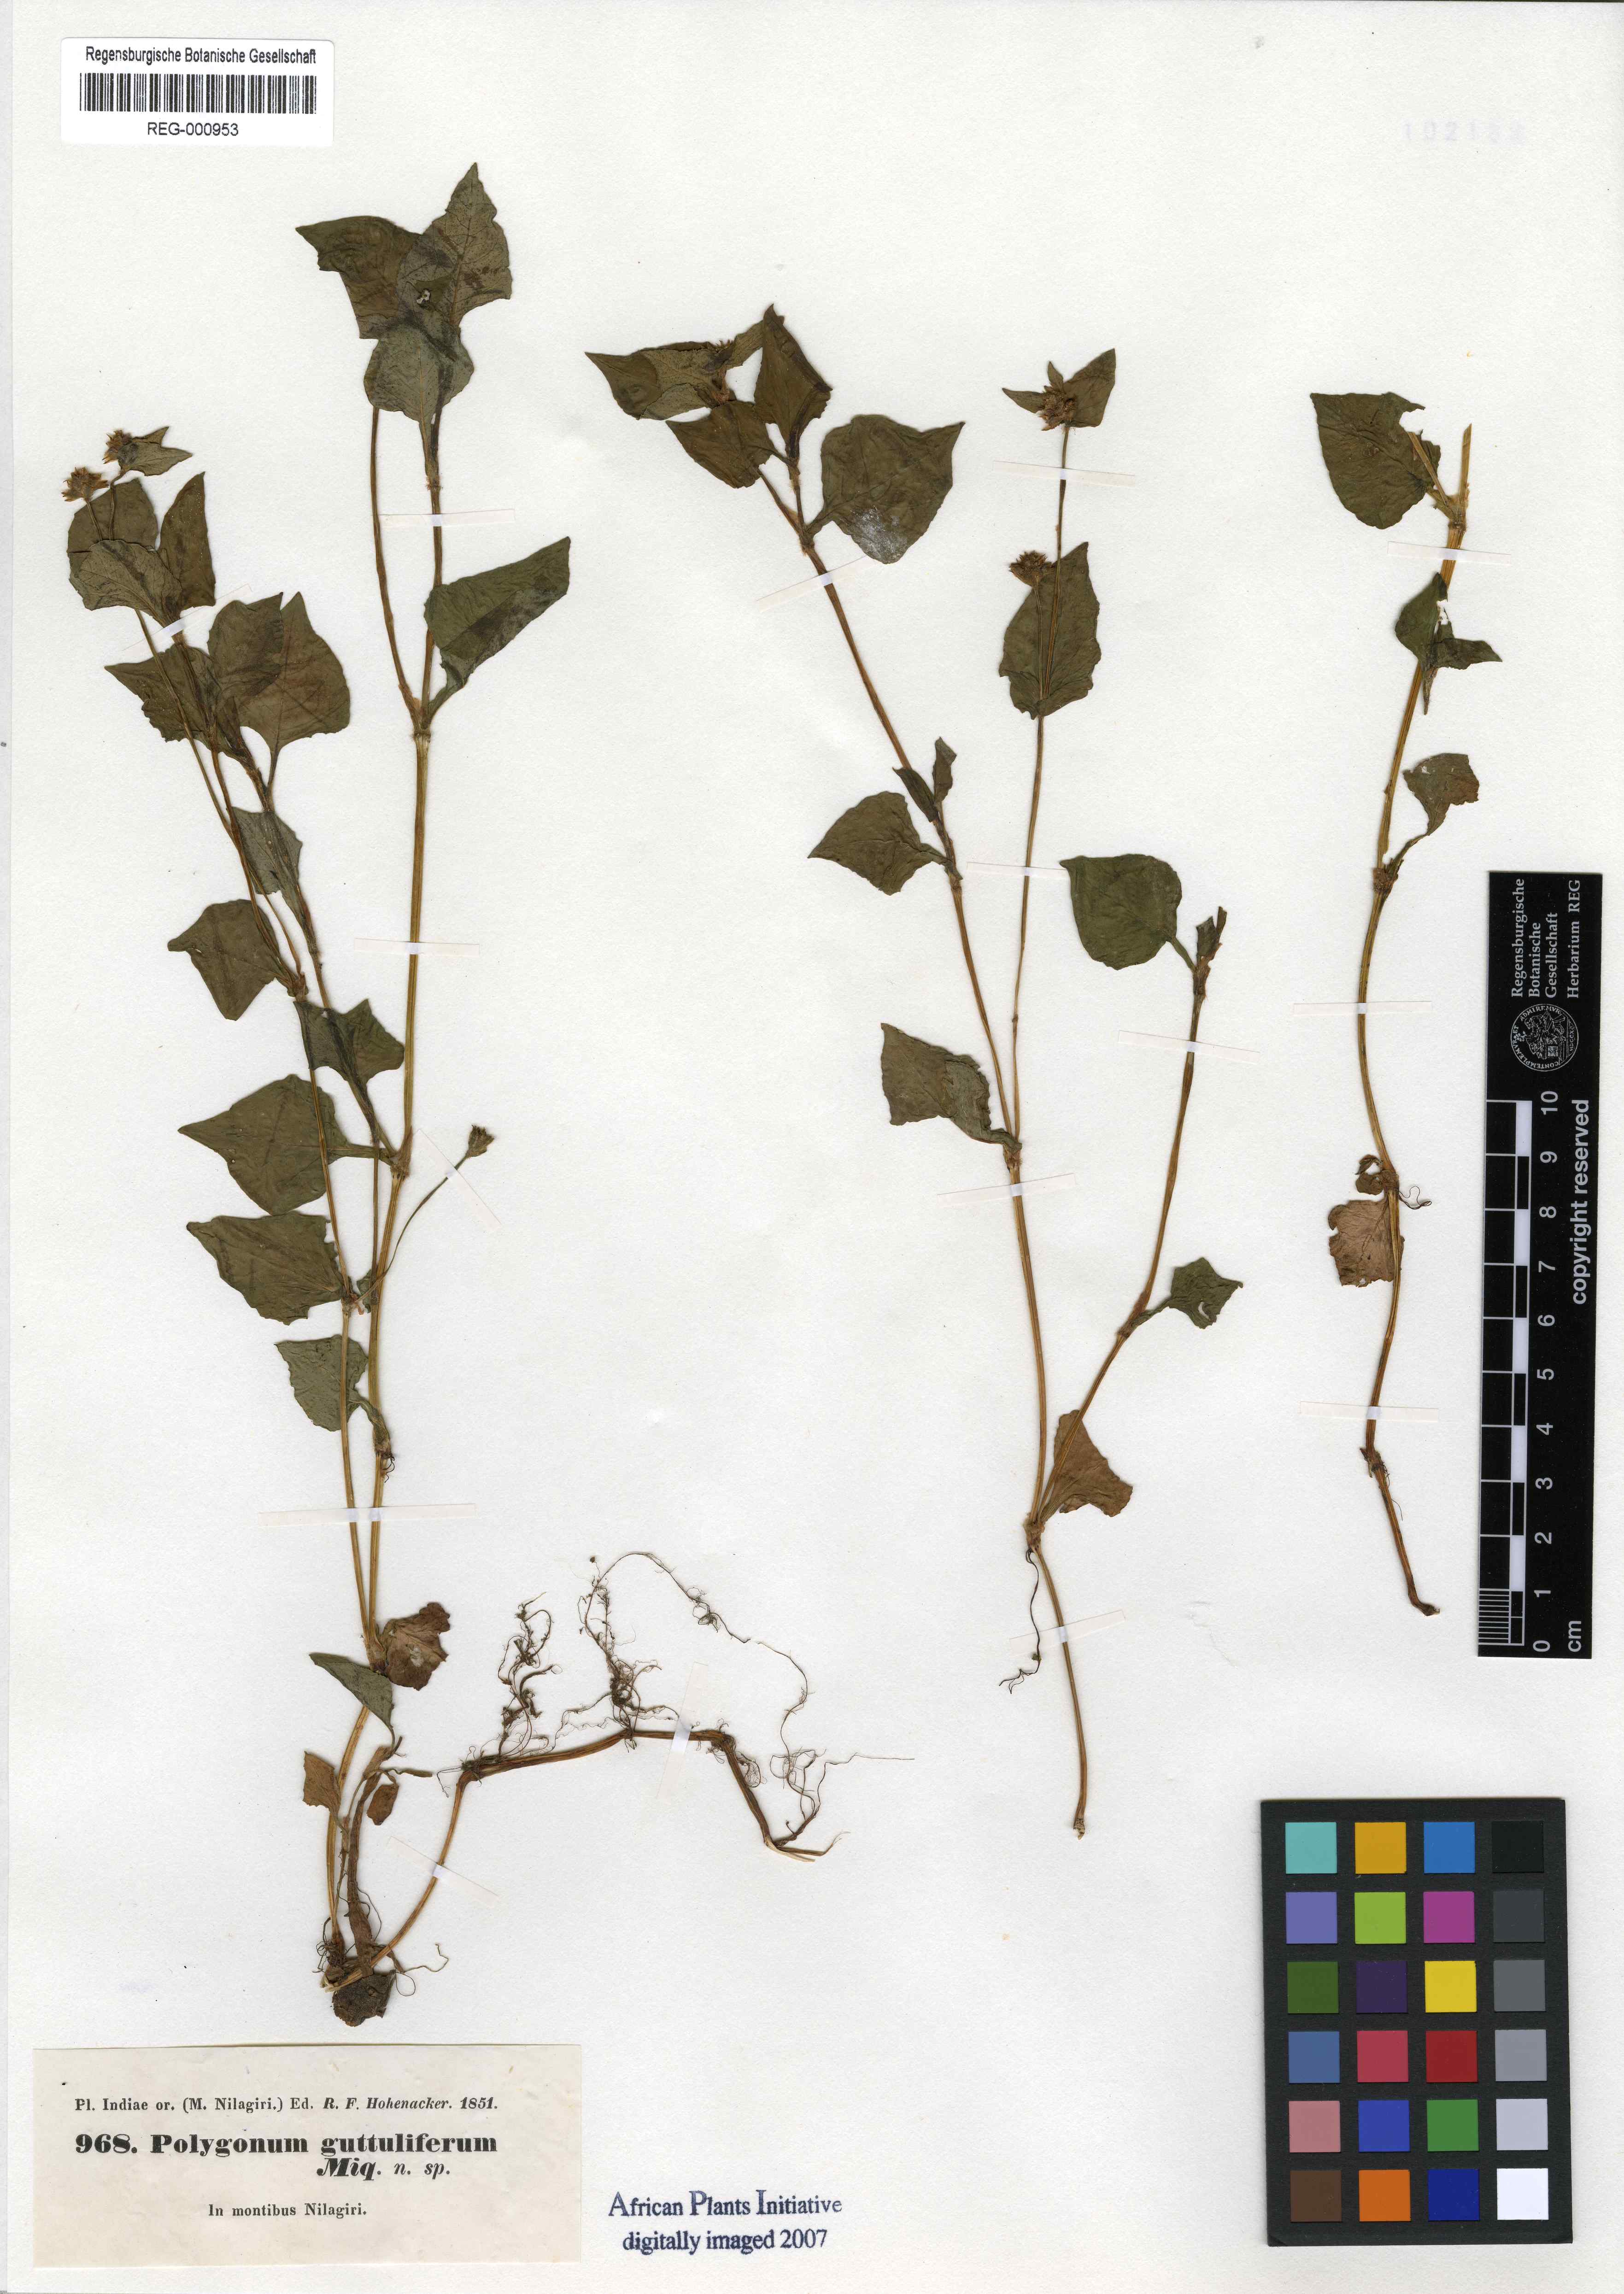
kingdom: Plantae
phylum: Tracheophyta
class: Magnoliopsida
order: Caryophyllales
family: Polygonaceae
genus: Persicaria
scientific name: Persicaria nepalensis
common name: Nepal persicaria
